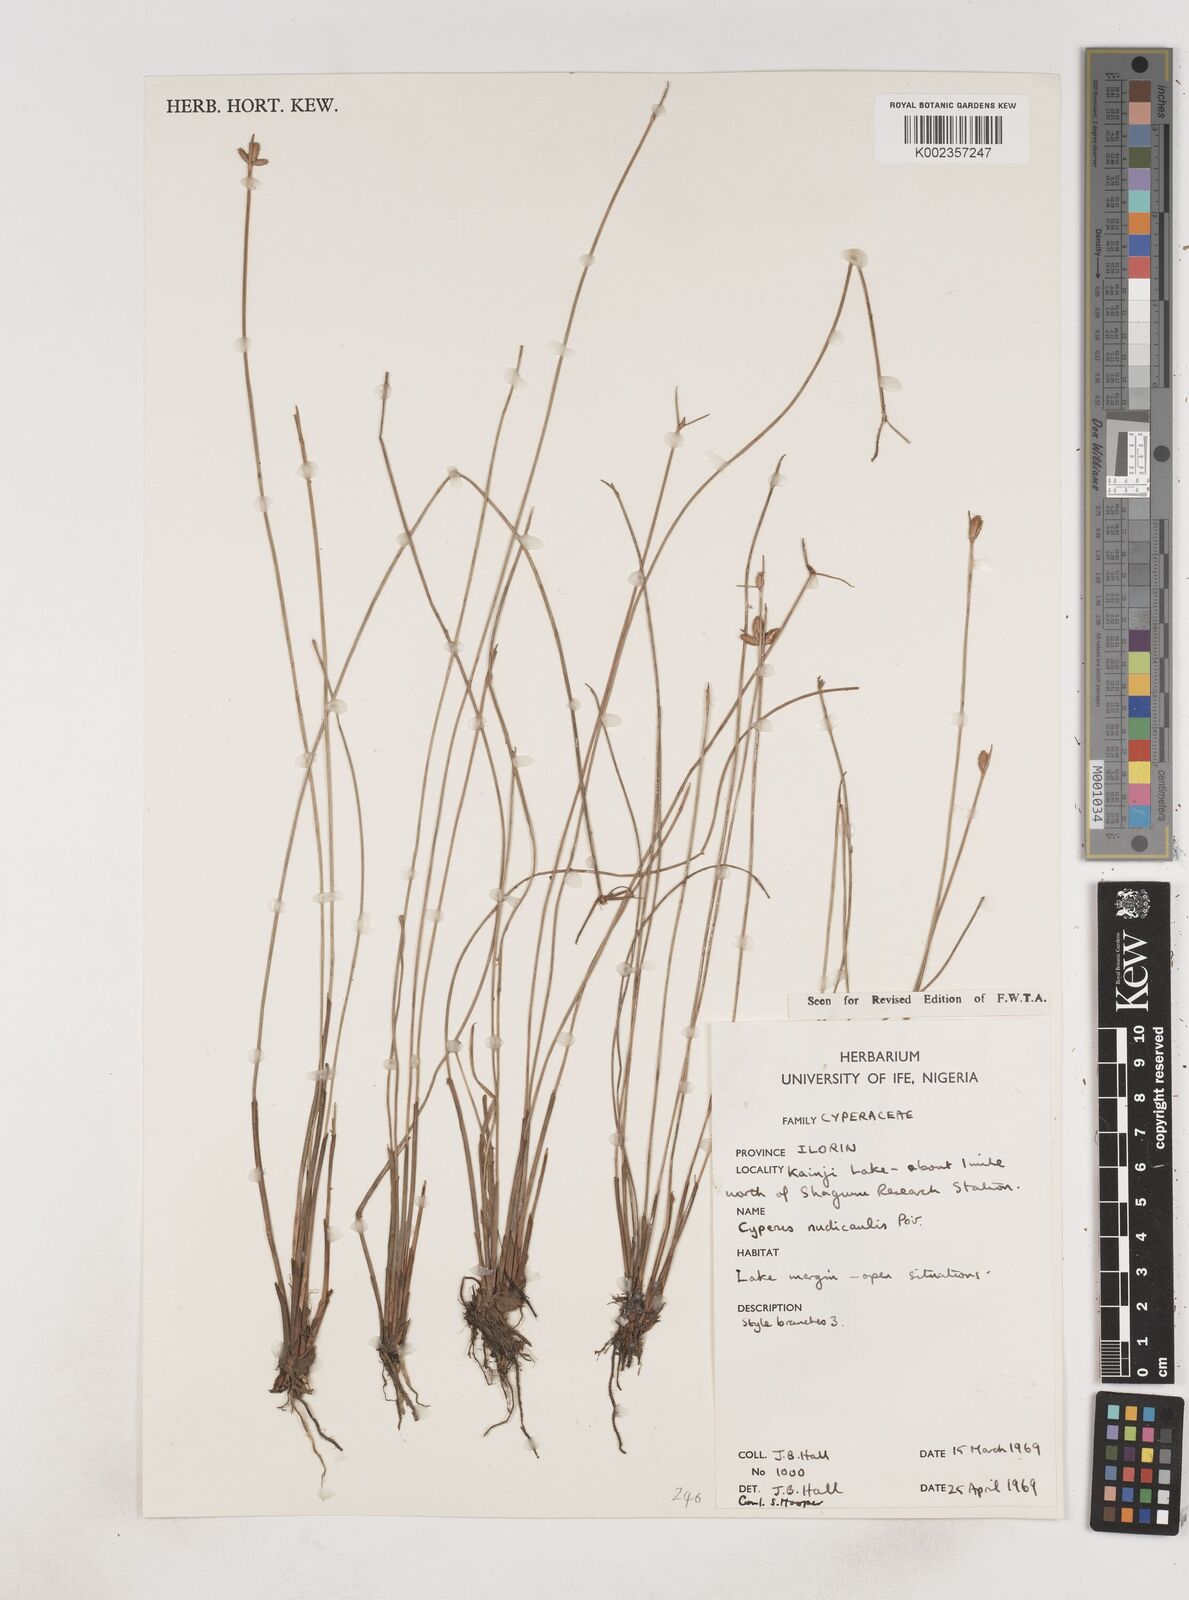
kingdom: Plantae
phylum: Tracheophyta
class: Liliopsida
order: Poales
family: Cyperaceae
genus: Cyperus
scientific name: Cyperus pectinatus
